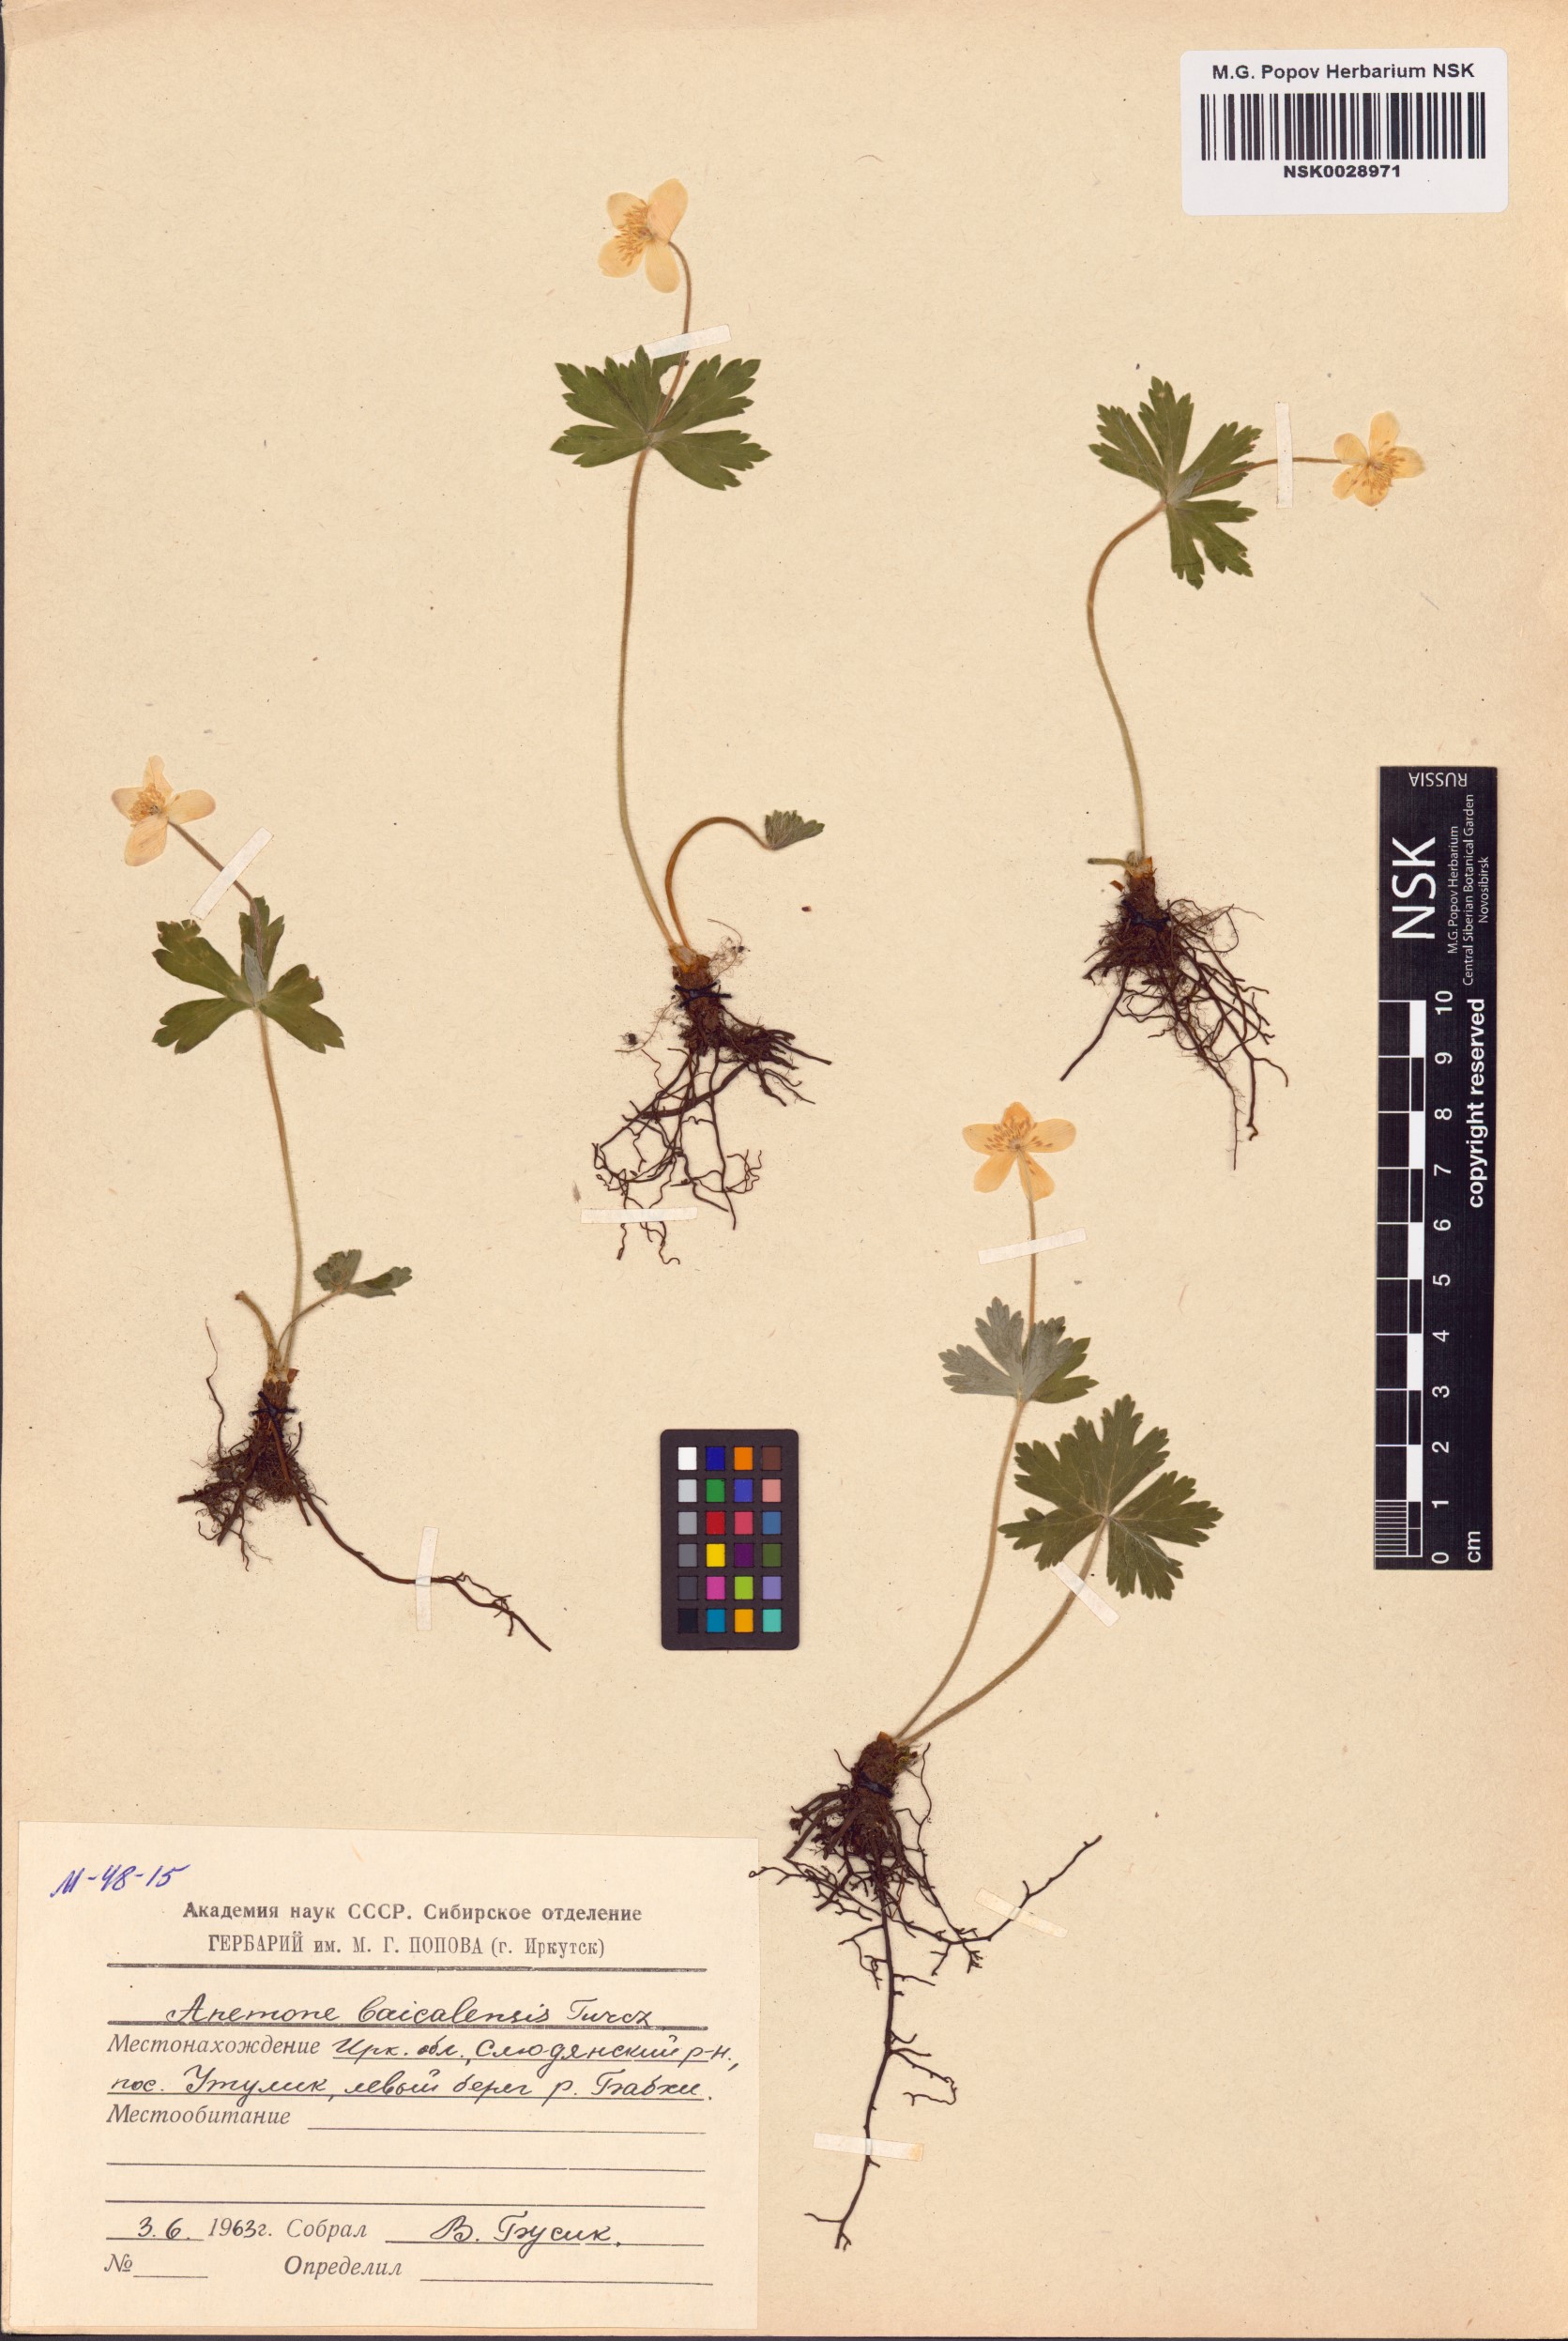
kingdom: Plantae
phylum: Tracheophyta
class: Magnoliopsida
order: Ranunculales
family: Ranunculaceae
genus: Anemonastrum
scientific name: Anemonastrum baicalense
